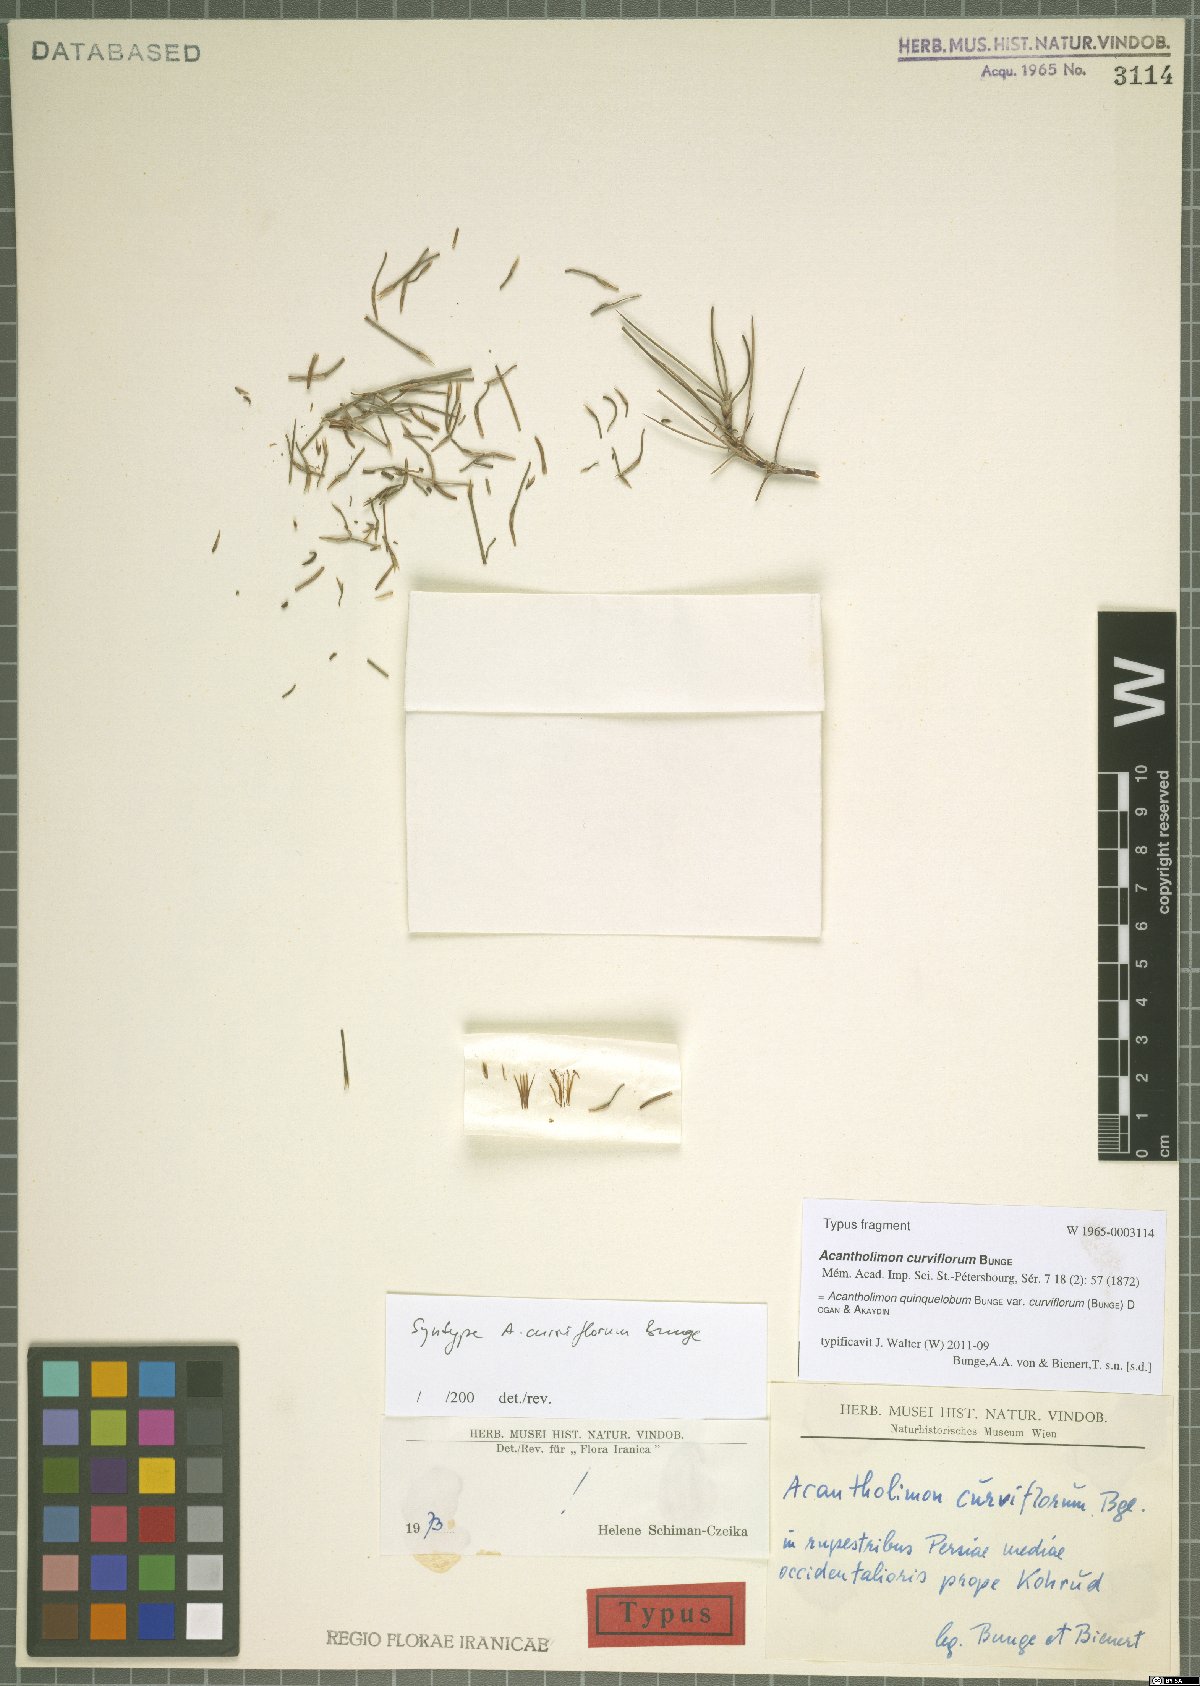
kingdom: Plantae
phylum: Tracheophyta
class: Magnoliopsida
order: Caryophyllales
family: Plumbaginaceae
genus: Acantholimon
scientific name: Acantholimon quinquelobum
